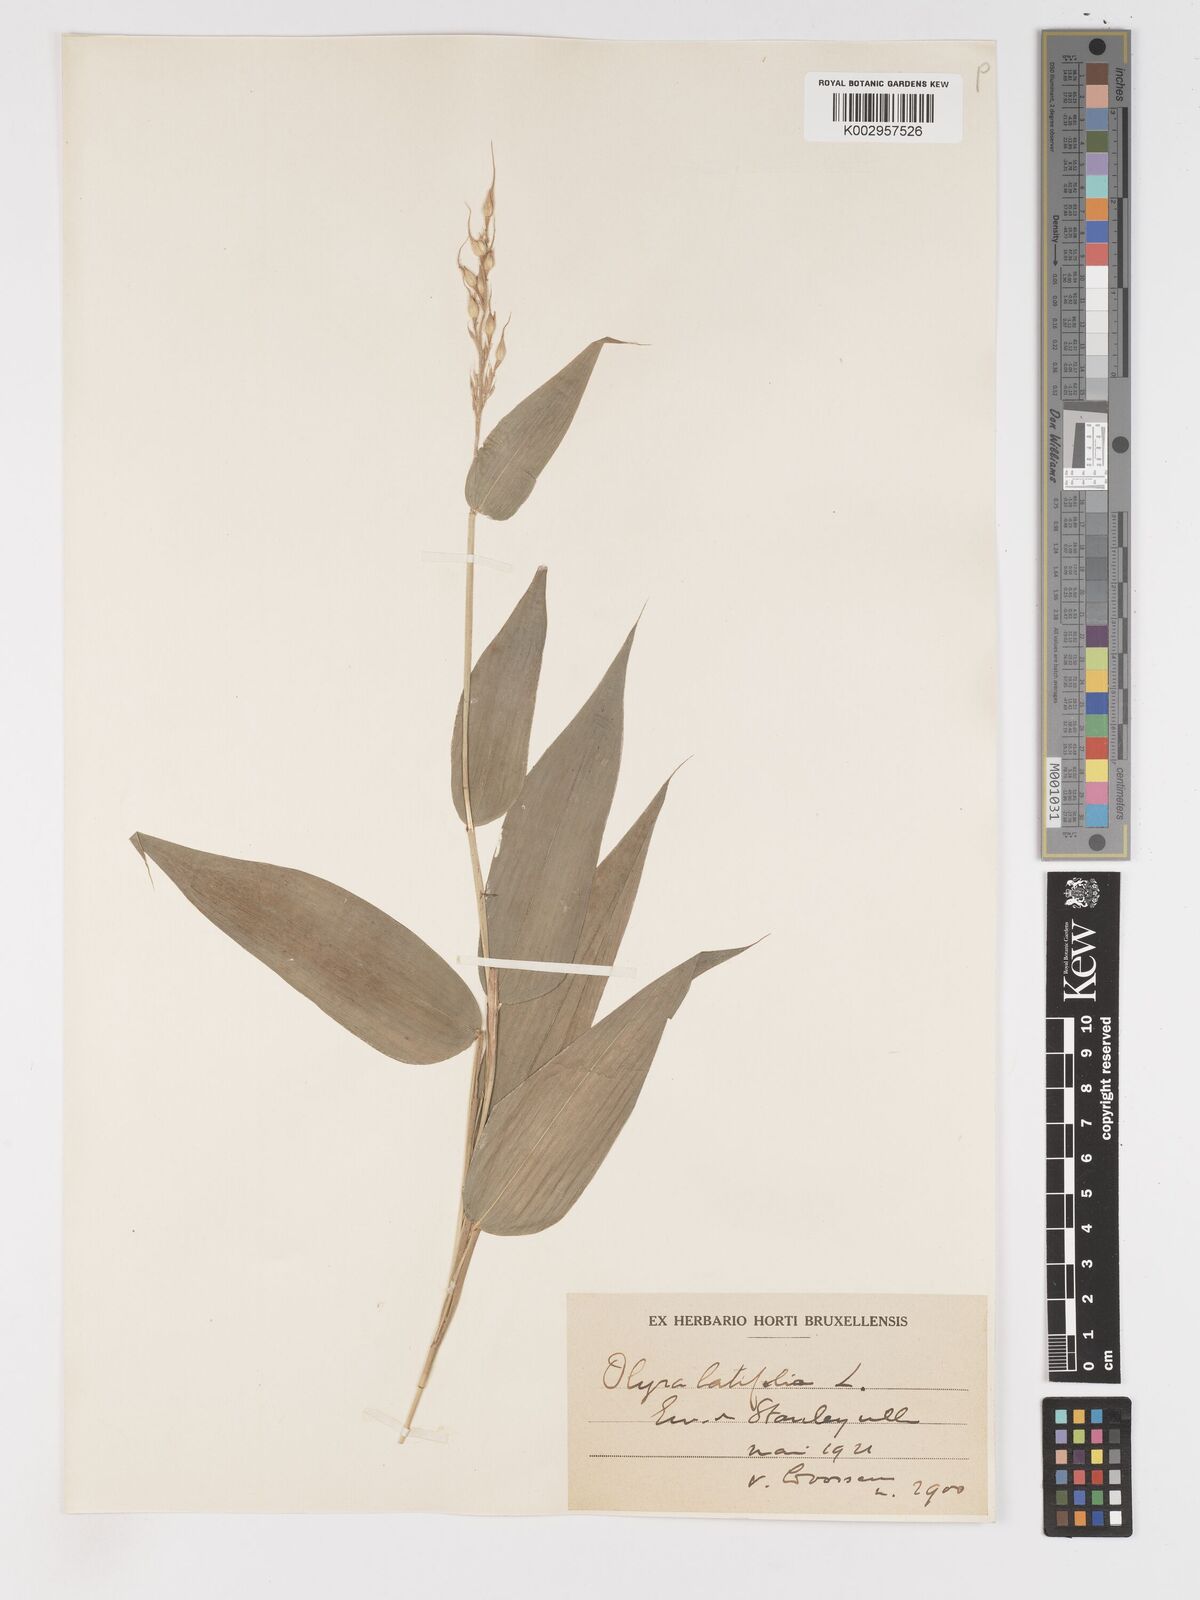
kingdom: Plantae
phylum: Tracheophyta
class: Liliopsida
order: Poales
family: Poaceae
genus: Olyra
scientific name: Olyra latifolia
